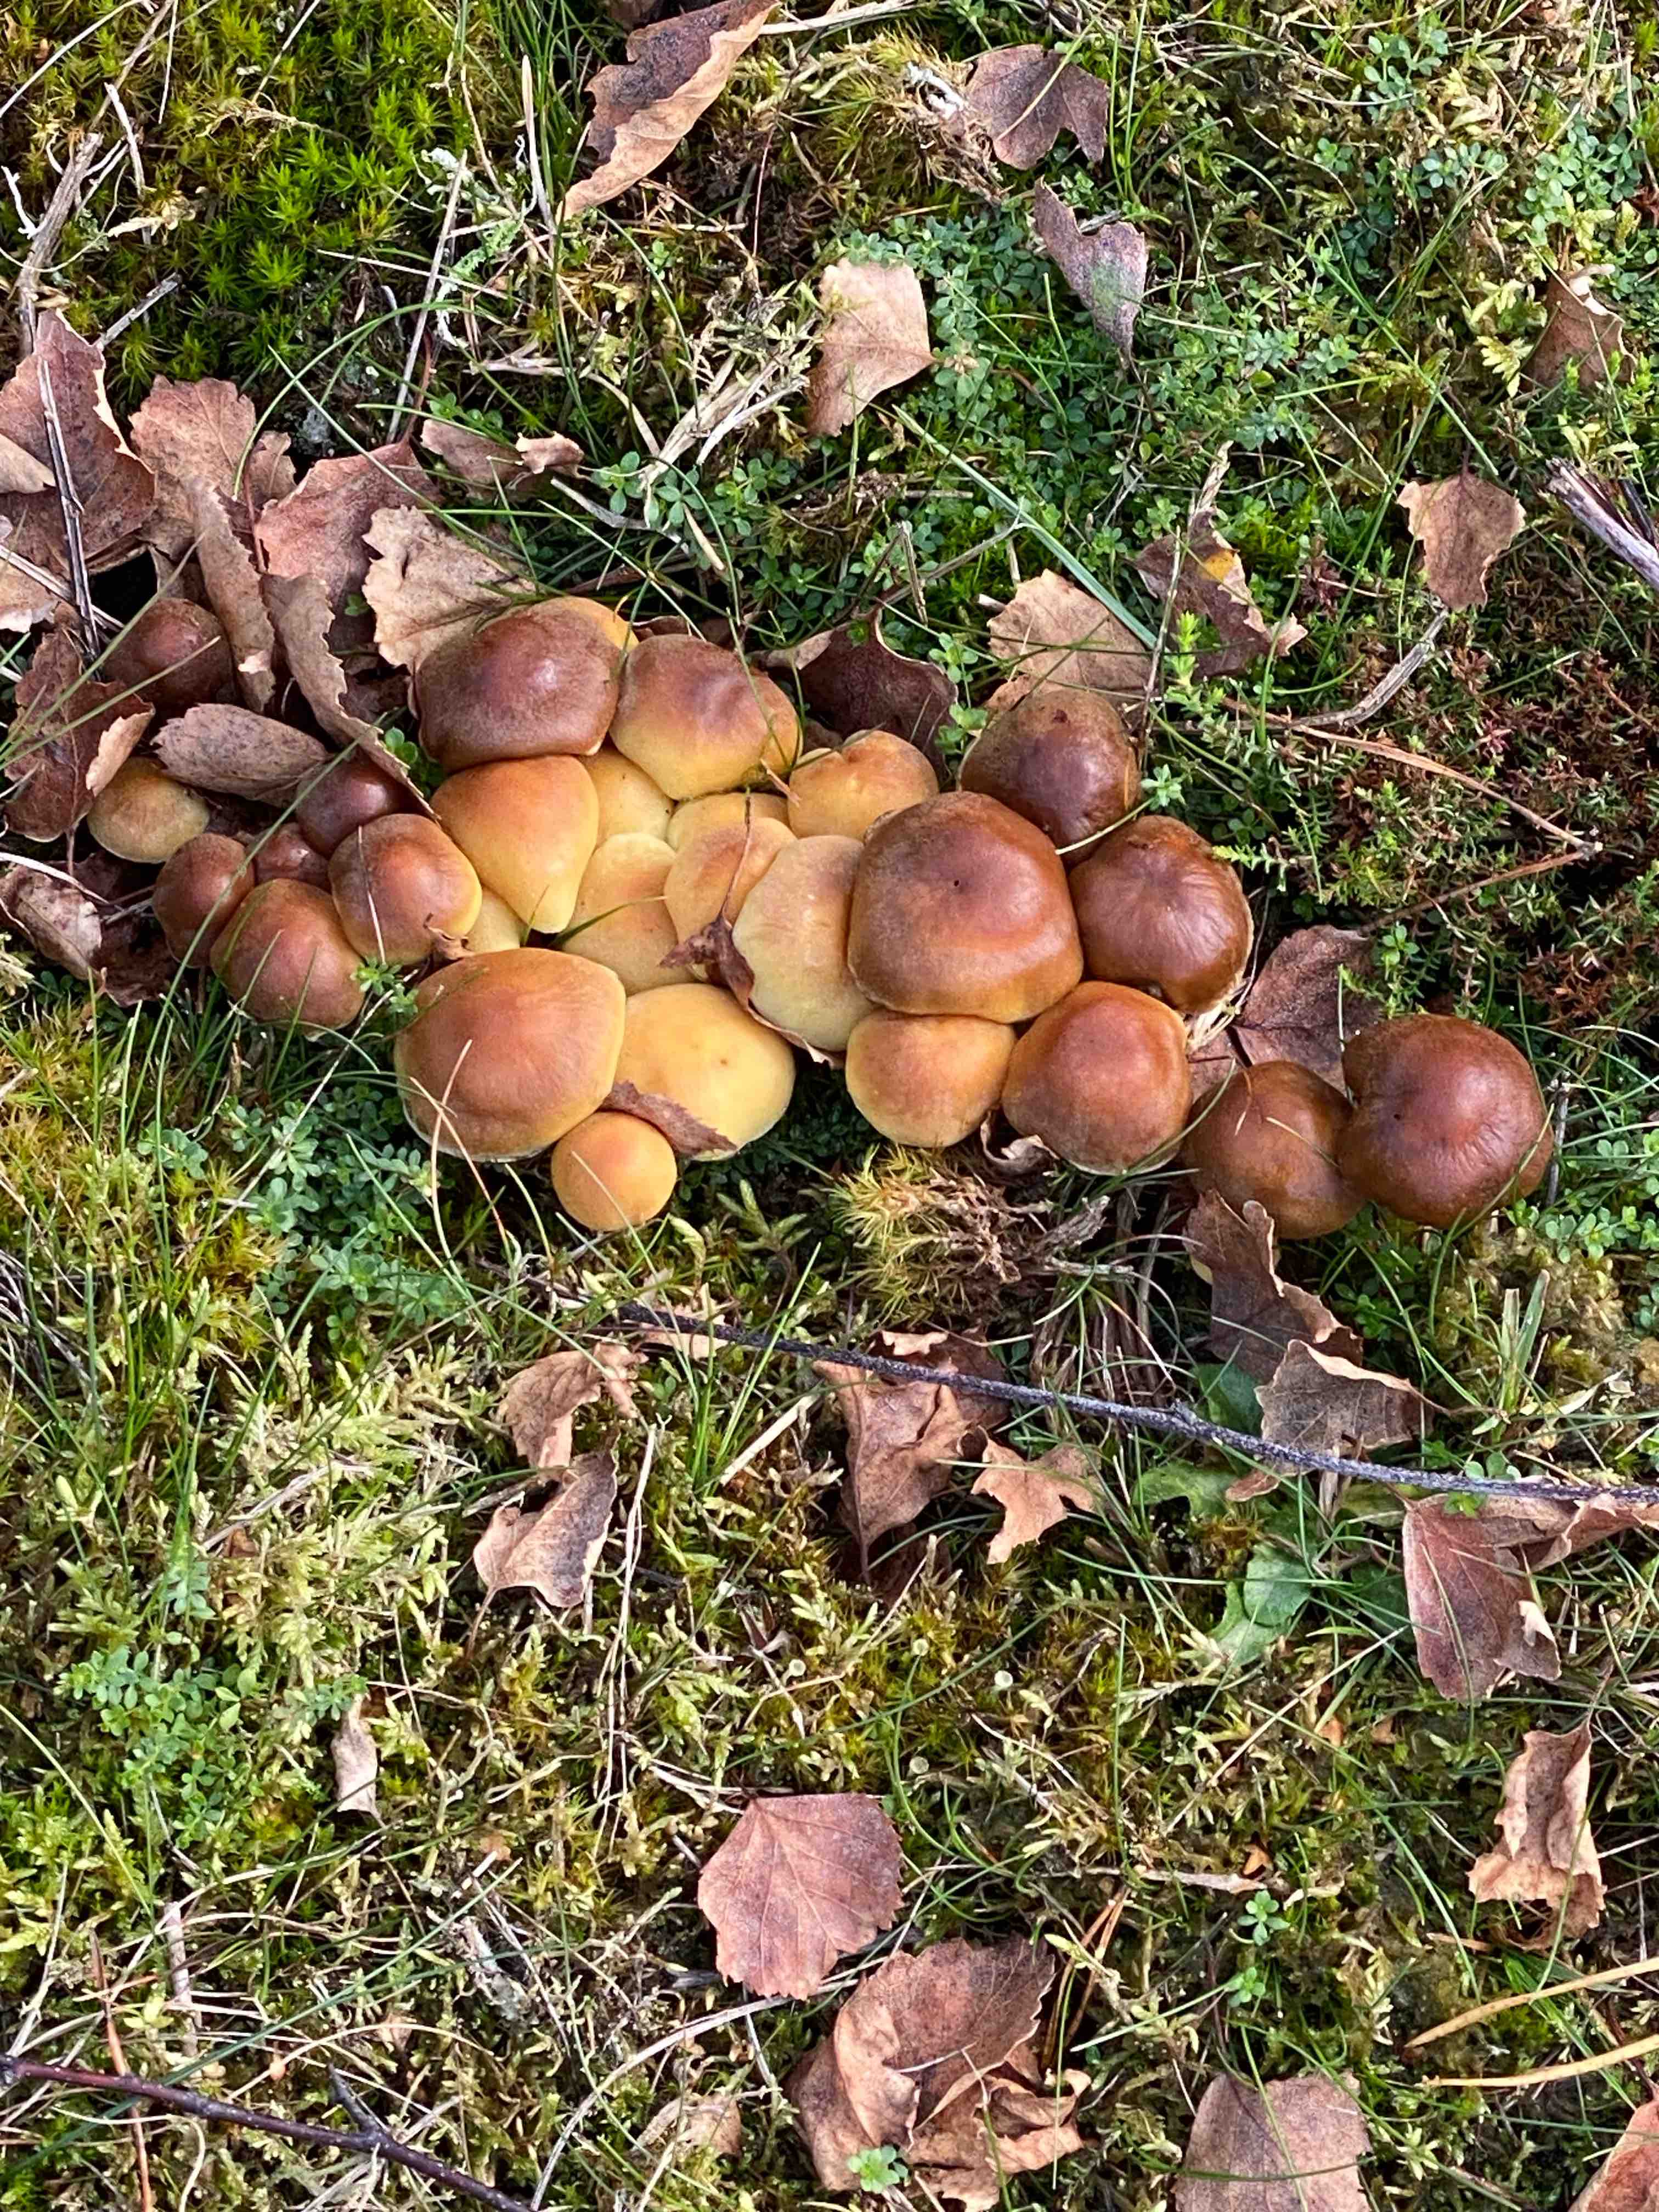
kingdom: Fungi
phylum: Basidiomycota
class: Agaricomycetes
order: Agaricales
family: Strophariaceae
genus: Hypholoma
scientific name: Hypholoma
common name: svovlhat
